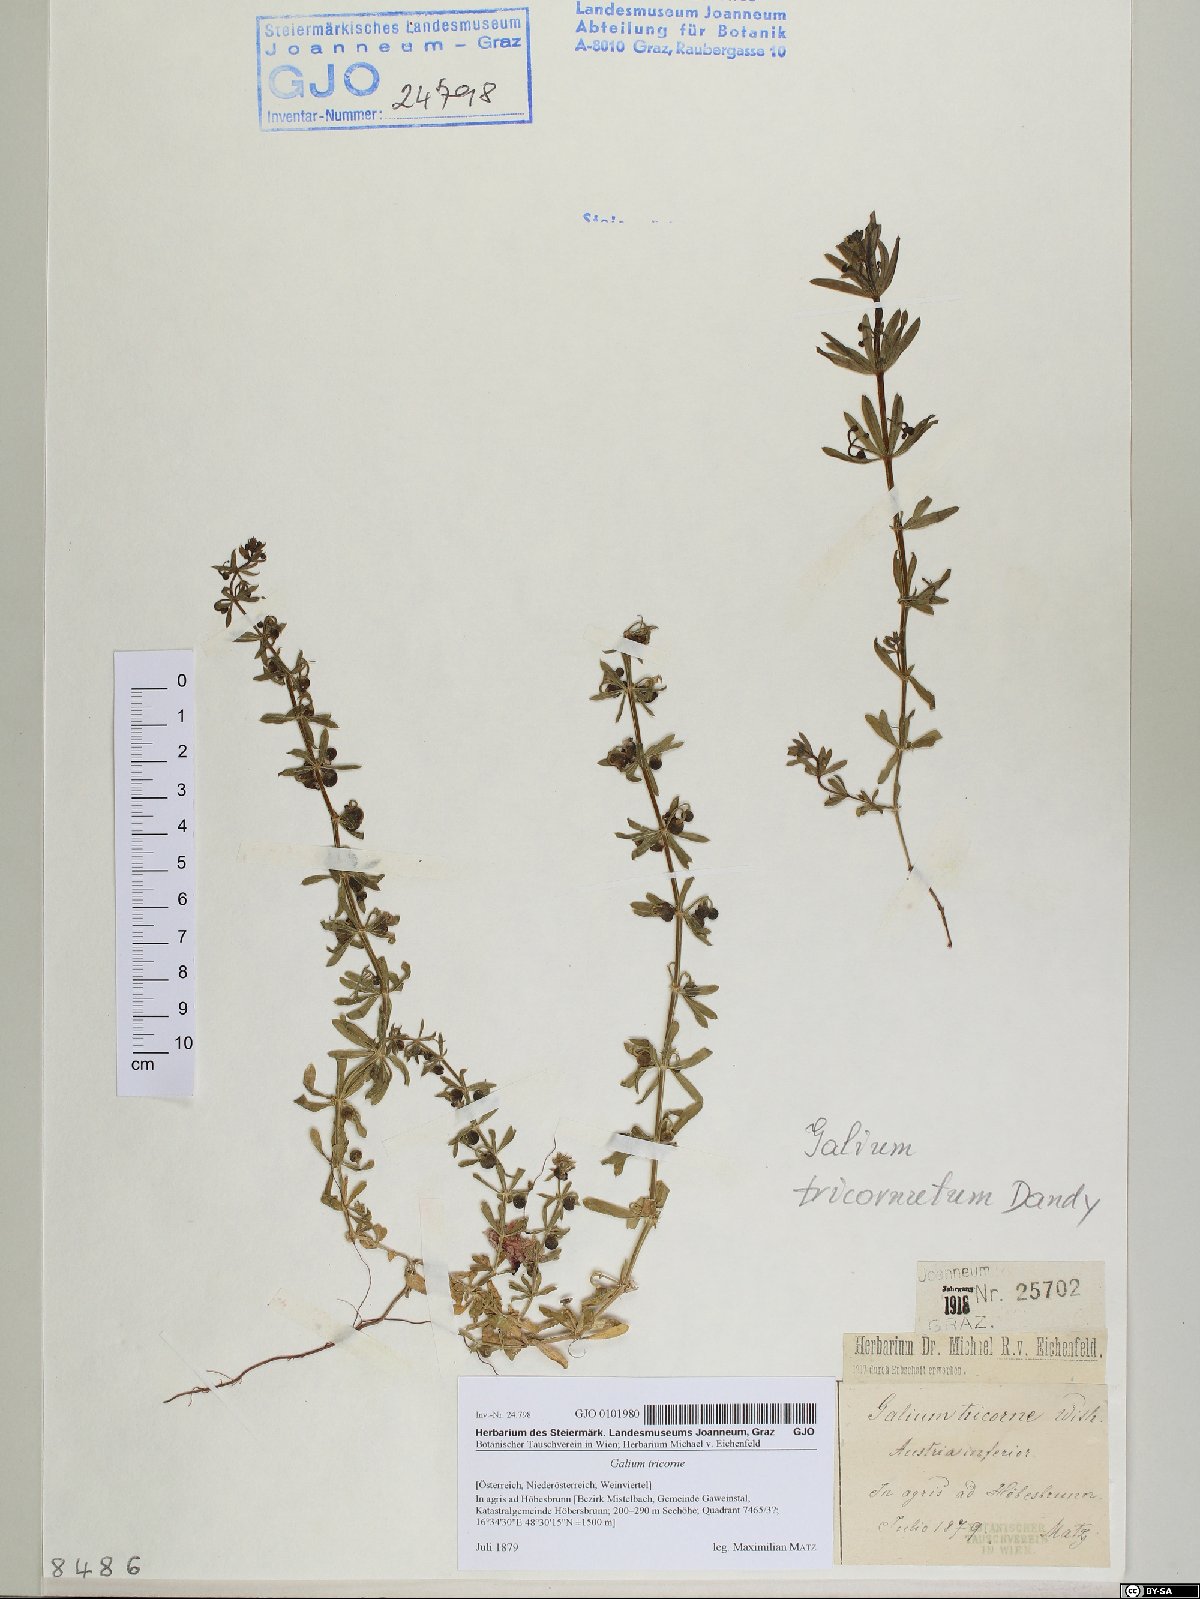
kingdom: Plantae
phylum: Tracheophyta
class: Magnoliopsida
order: Gentianales
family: Rubiaceae
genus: Galium
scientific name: Galium verrucosum
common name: Warty bedstraw
